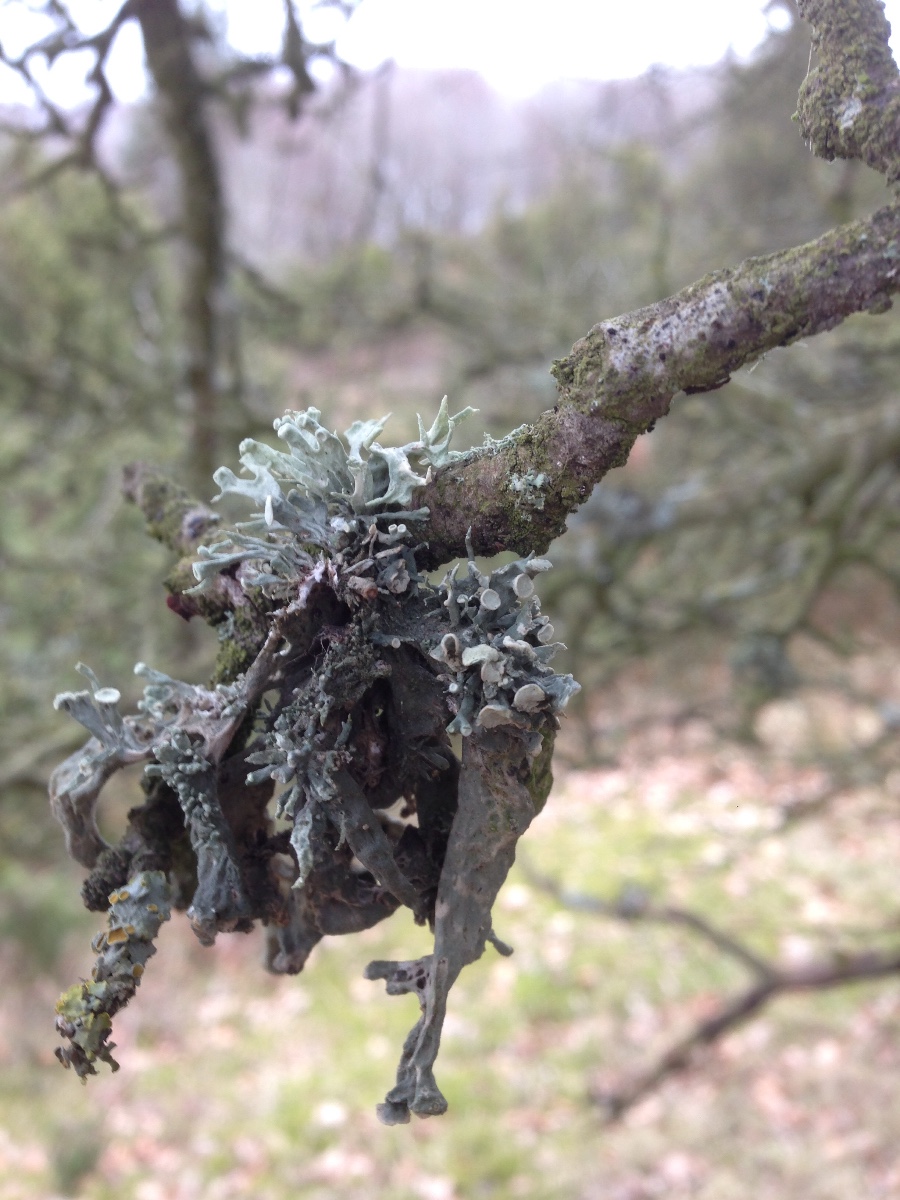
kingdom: Fungi
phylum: Ascomycota
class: Lecanoromycetes
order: Lecanorales
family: Ramalinaceae
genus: Ramalina
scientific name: Ramalina fastigiata
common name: tue-grenlav
